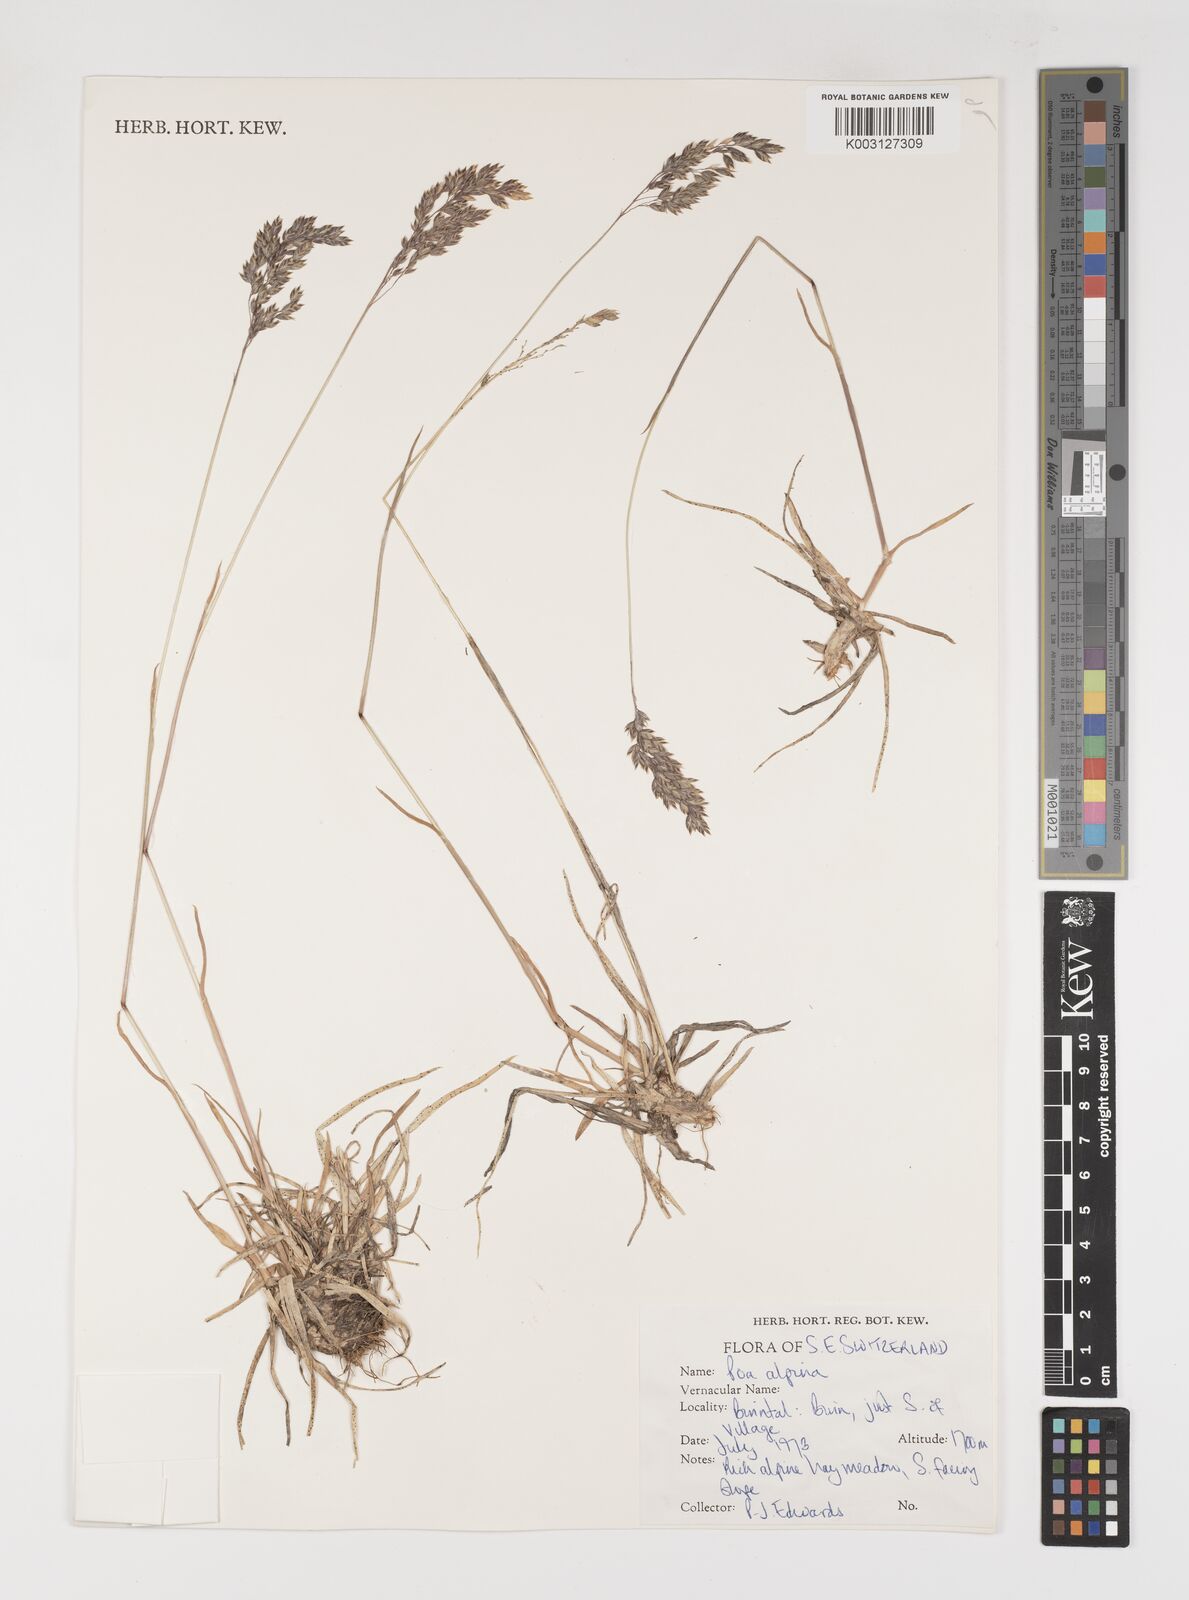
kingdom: Plantae
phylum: Tracheophyta
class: Liliopsida
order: Poales
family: Poaceae
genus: Poa
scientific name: Poa alpina
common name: Alpine bluegrass
